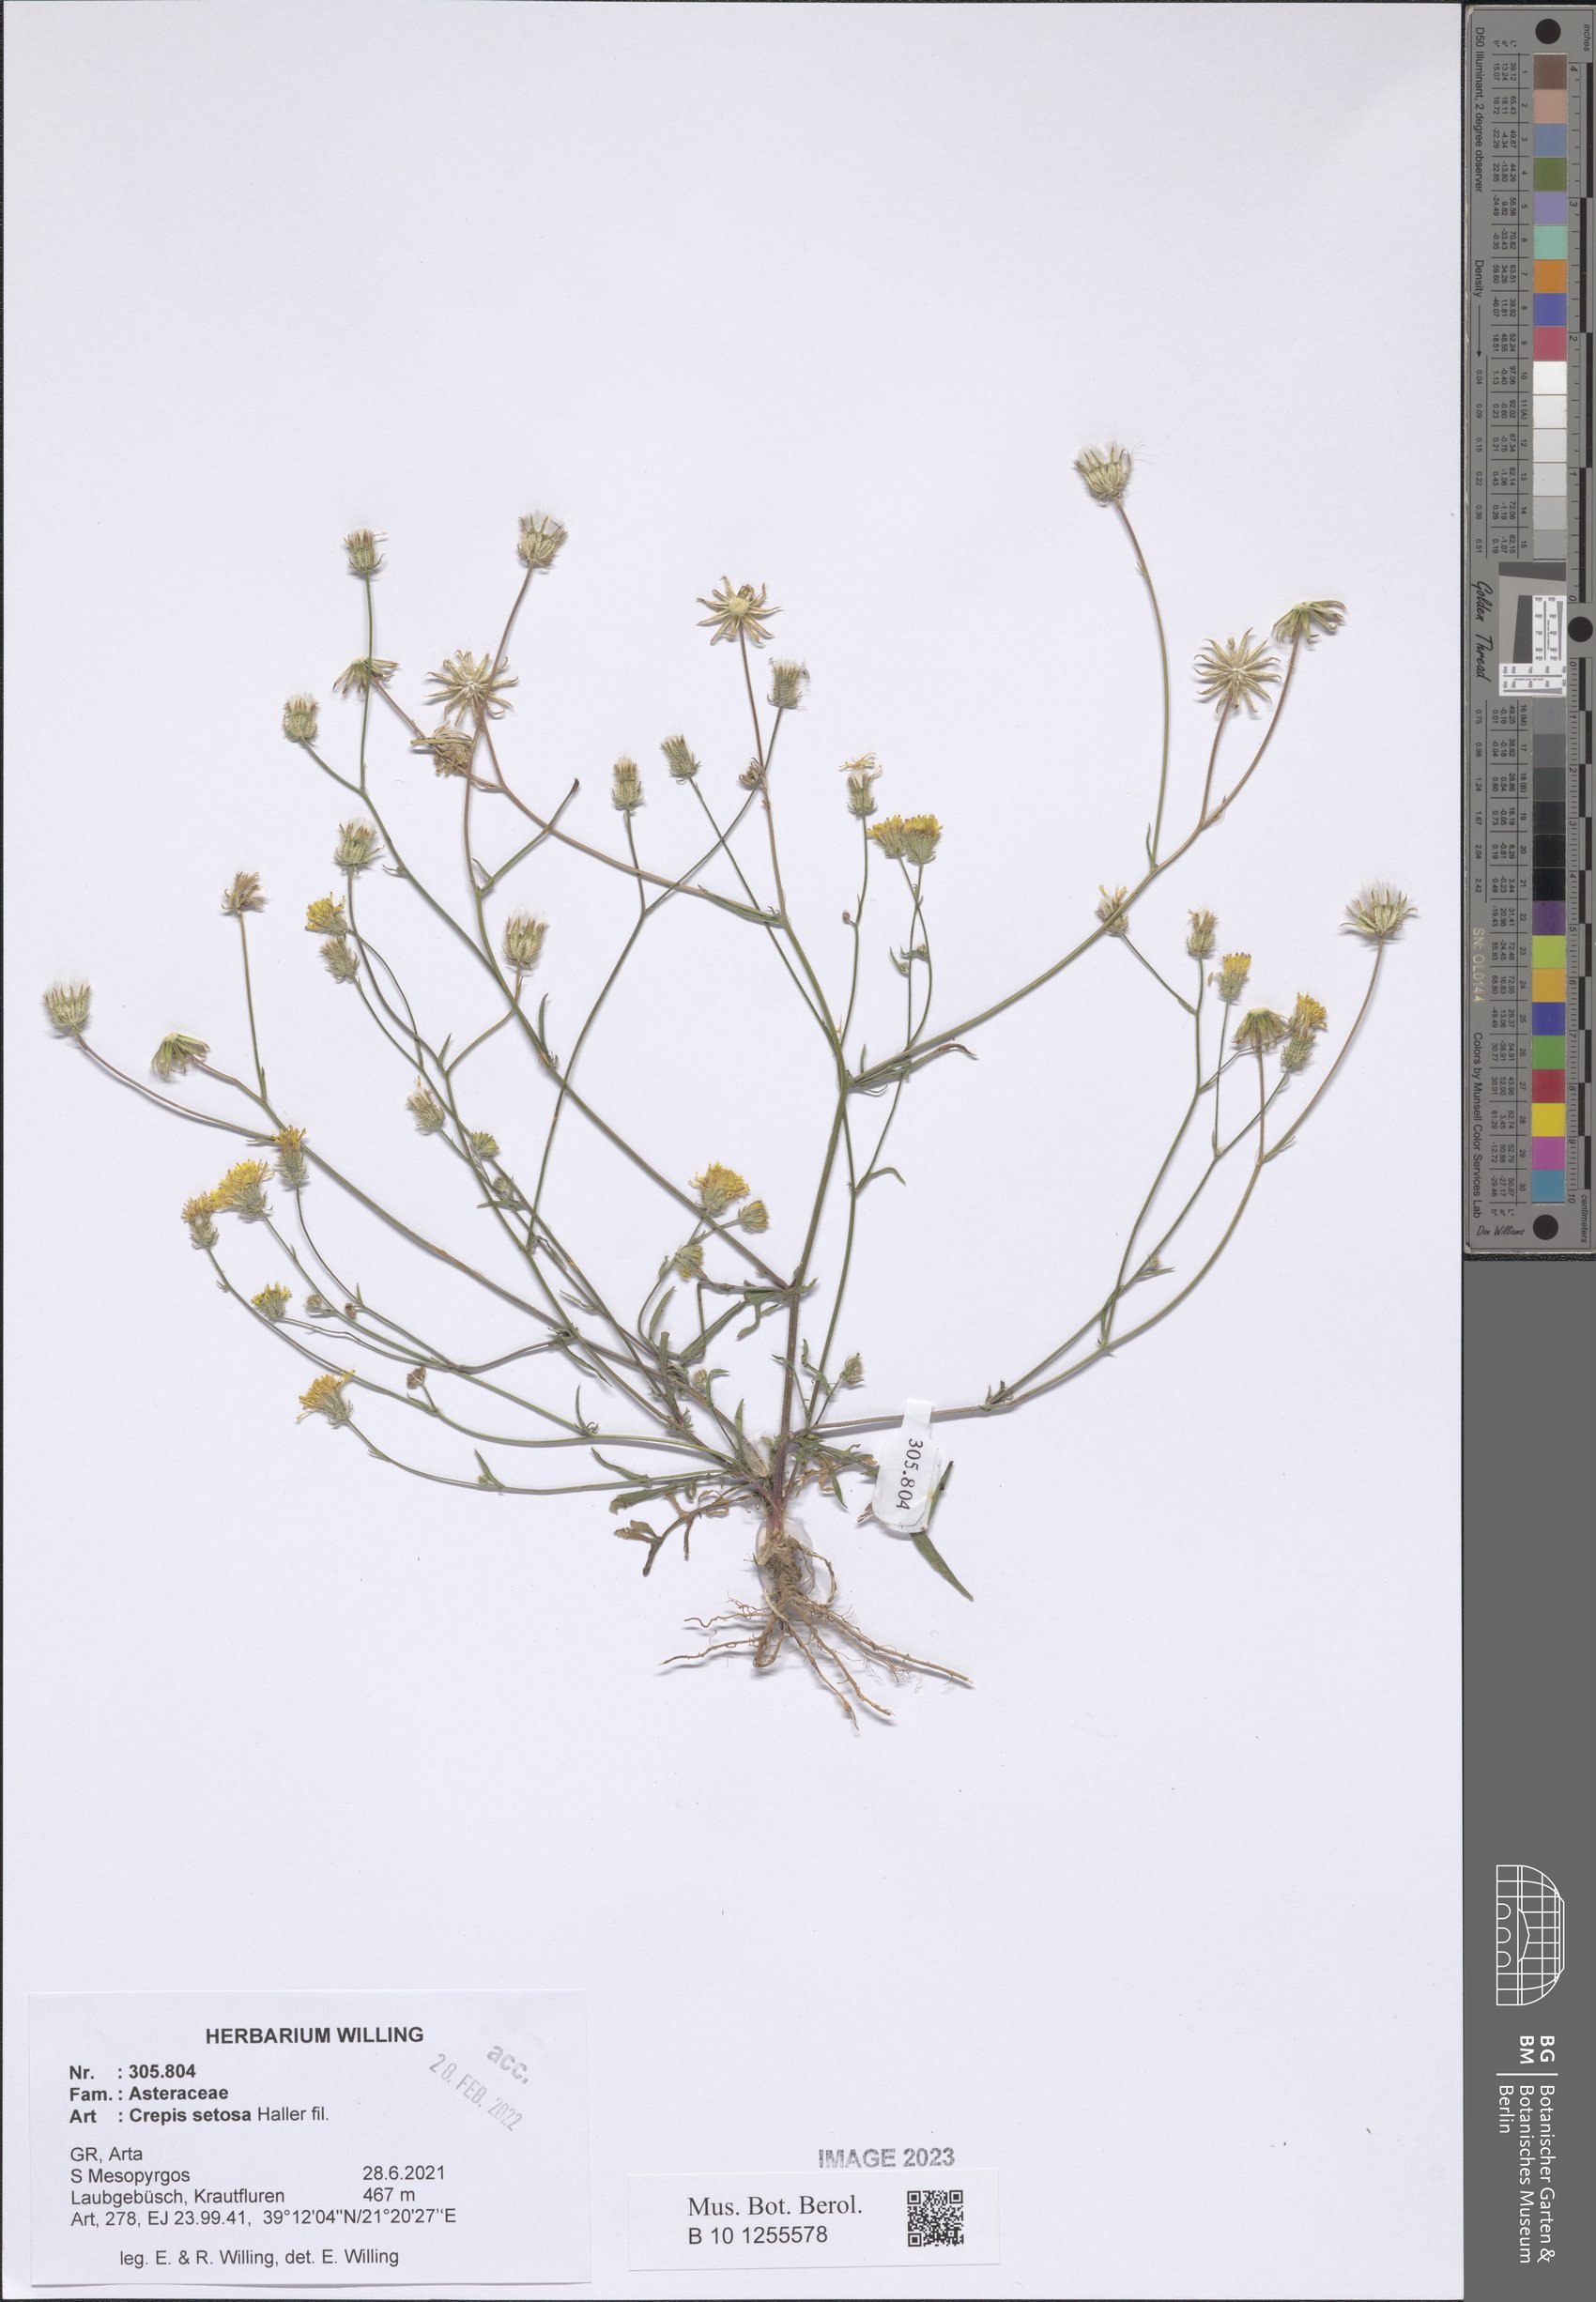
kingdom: Plantae
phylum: Tracheophyta
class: Magnoliopsida
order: Asterales
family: Asteraceae
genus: Crepis
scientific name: Crepis setosa
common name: Bristly hawk's-beard
